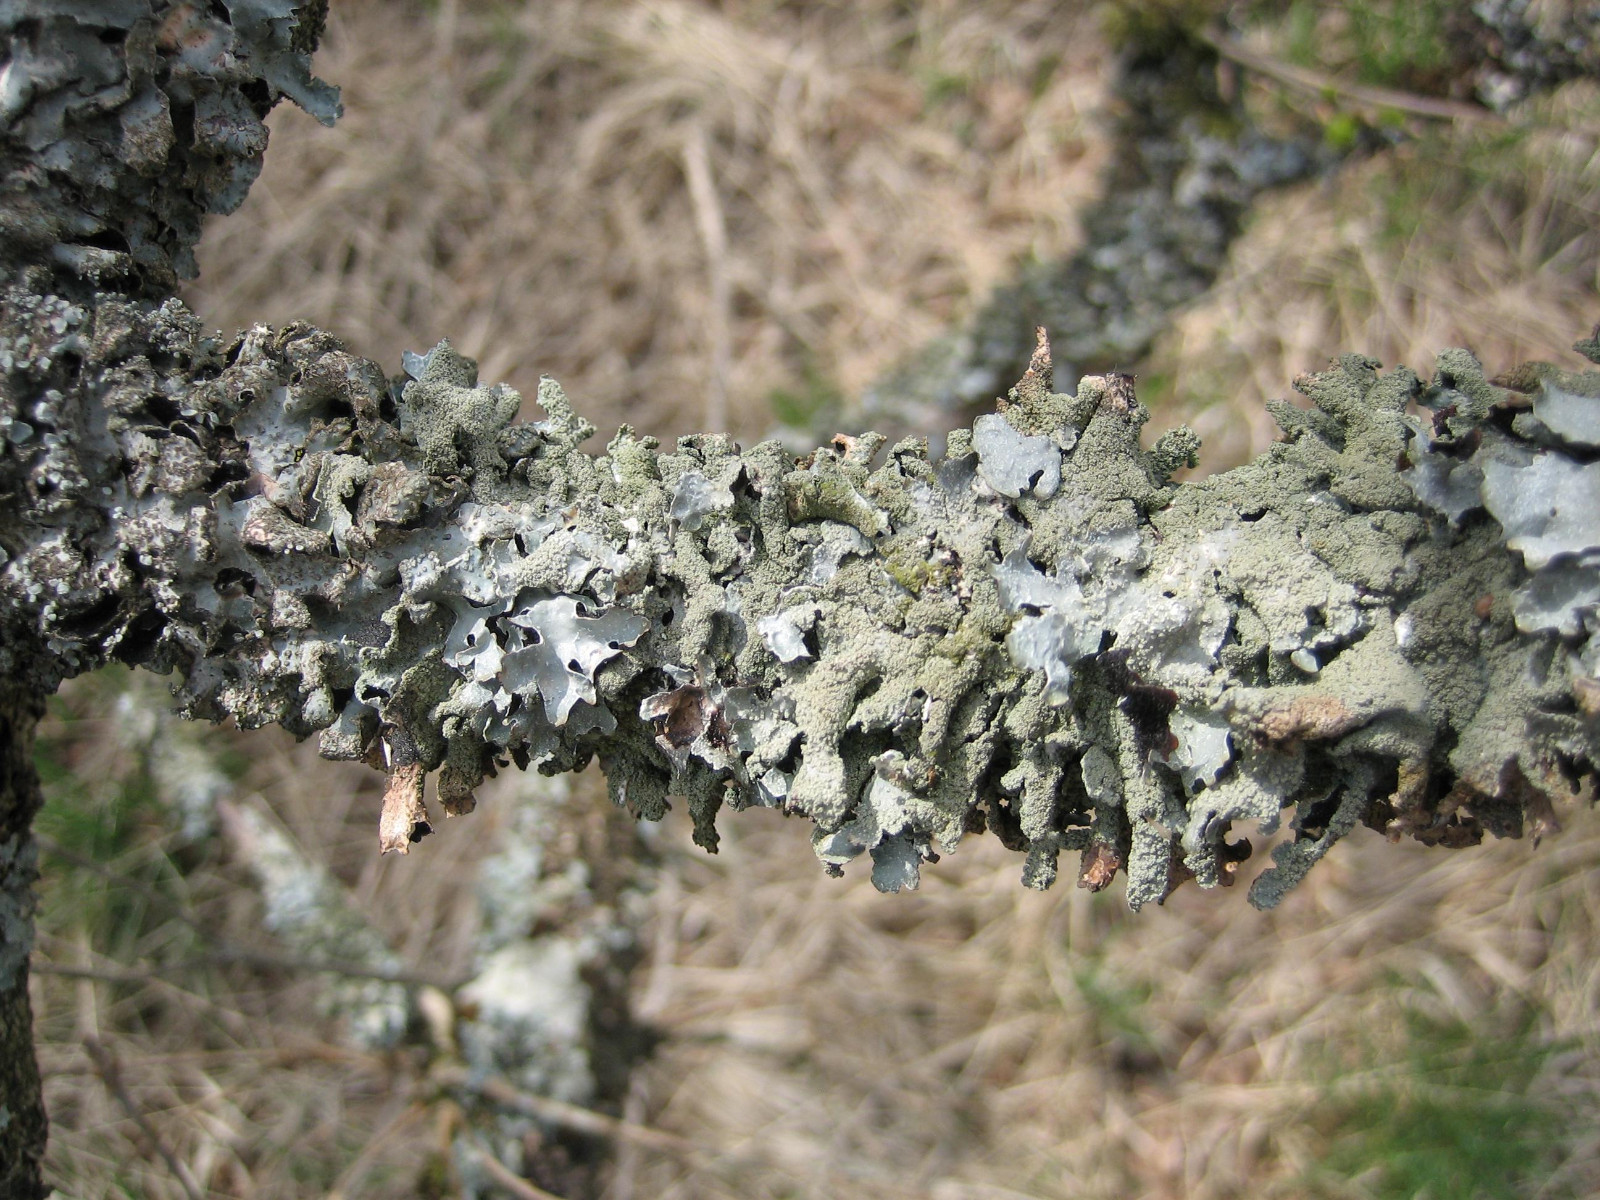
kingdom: Fungi
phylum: Ascomycota
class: Lecanoromycetes
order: Lecanorales
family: Parmeliaceae
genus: Parmelia
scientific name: Parmelia submontana
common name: langlobet skållav
